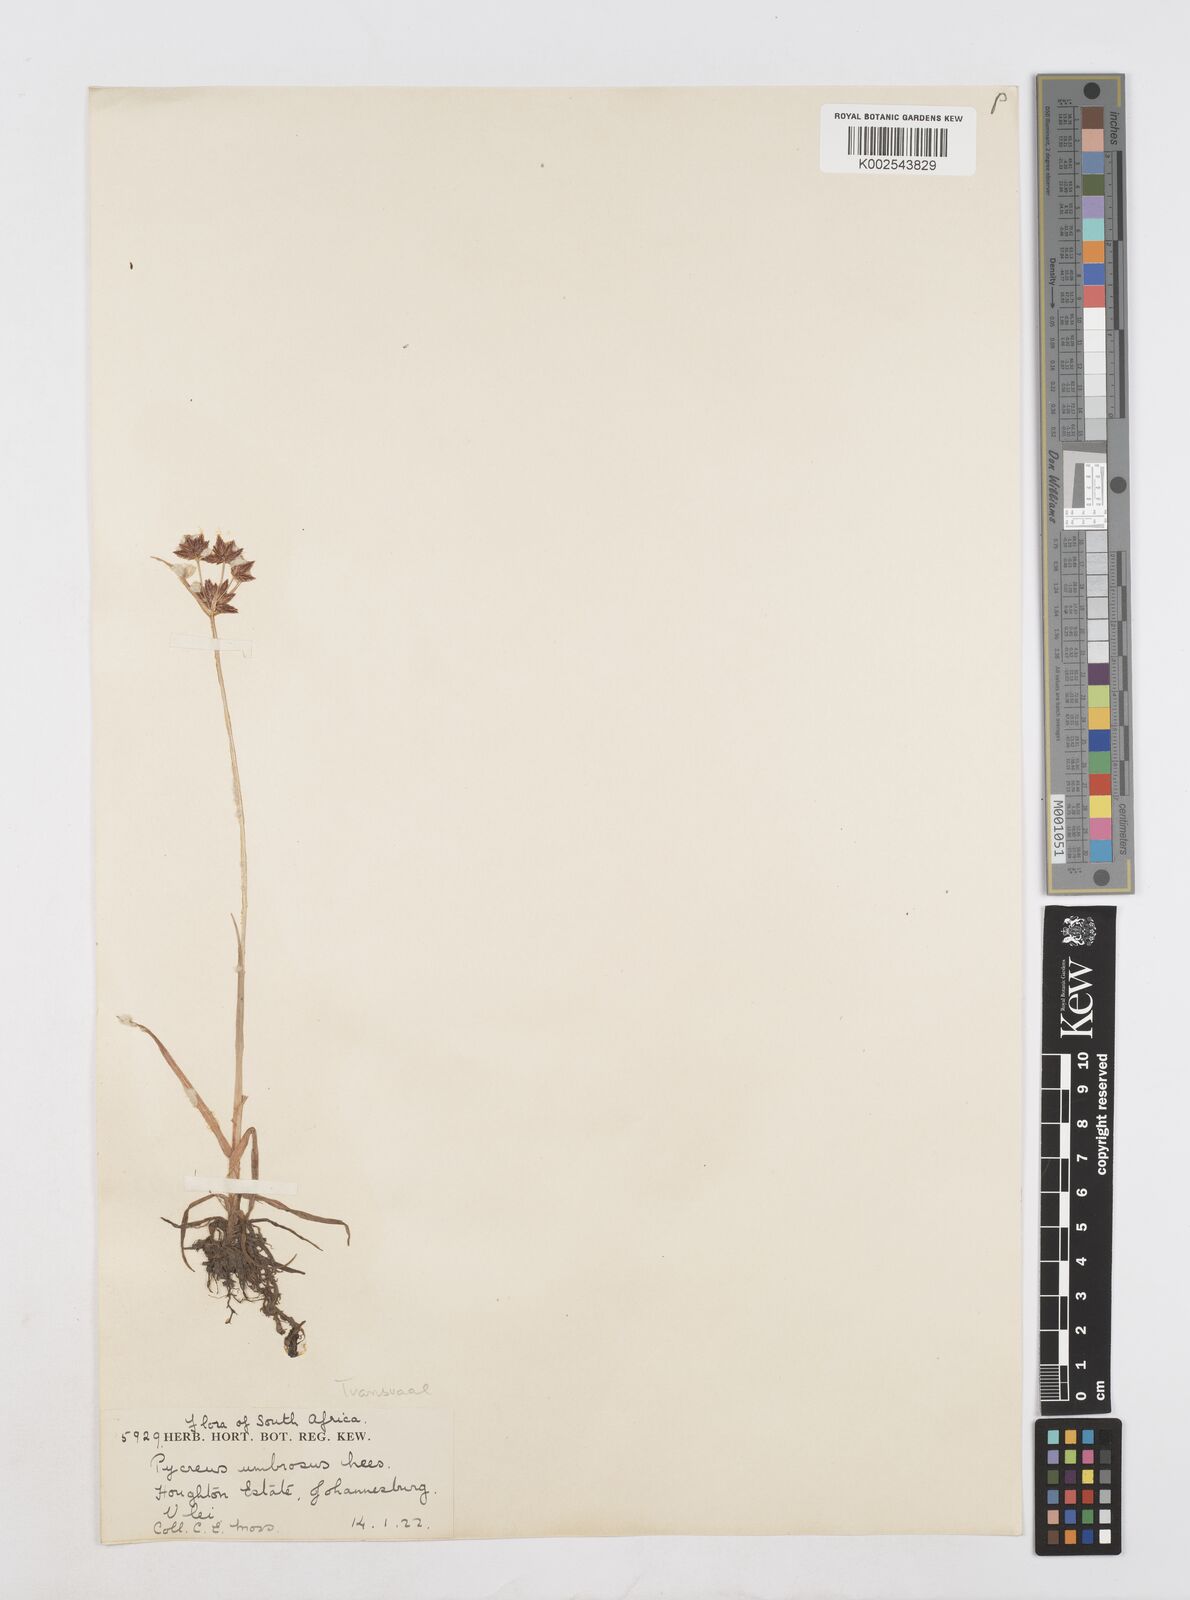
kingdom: Plantae
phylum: Tracheophyta
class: Liliopsida
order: Poales
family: Cyperaceae
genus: Cyperus
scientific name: Cyperus mundii
